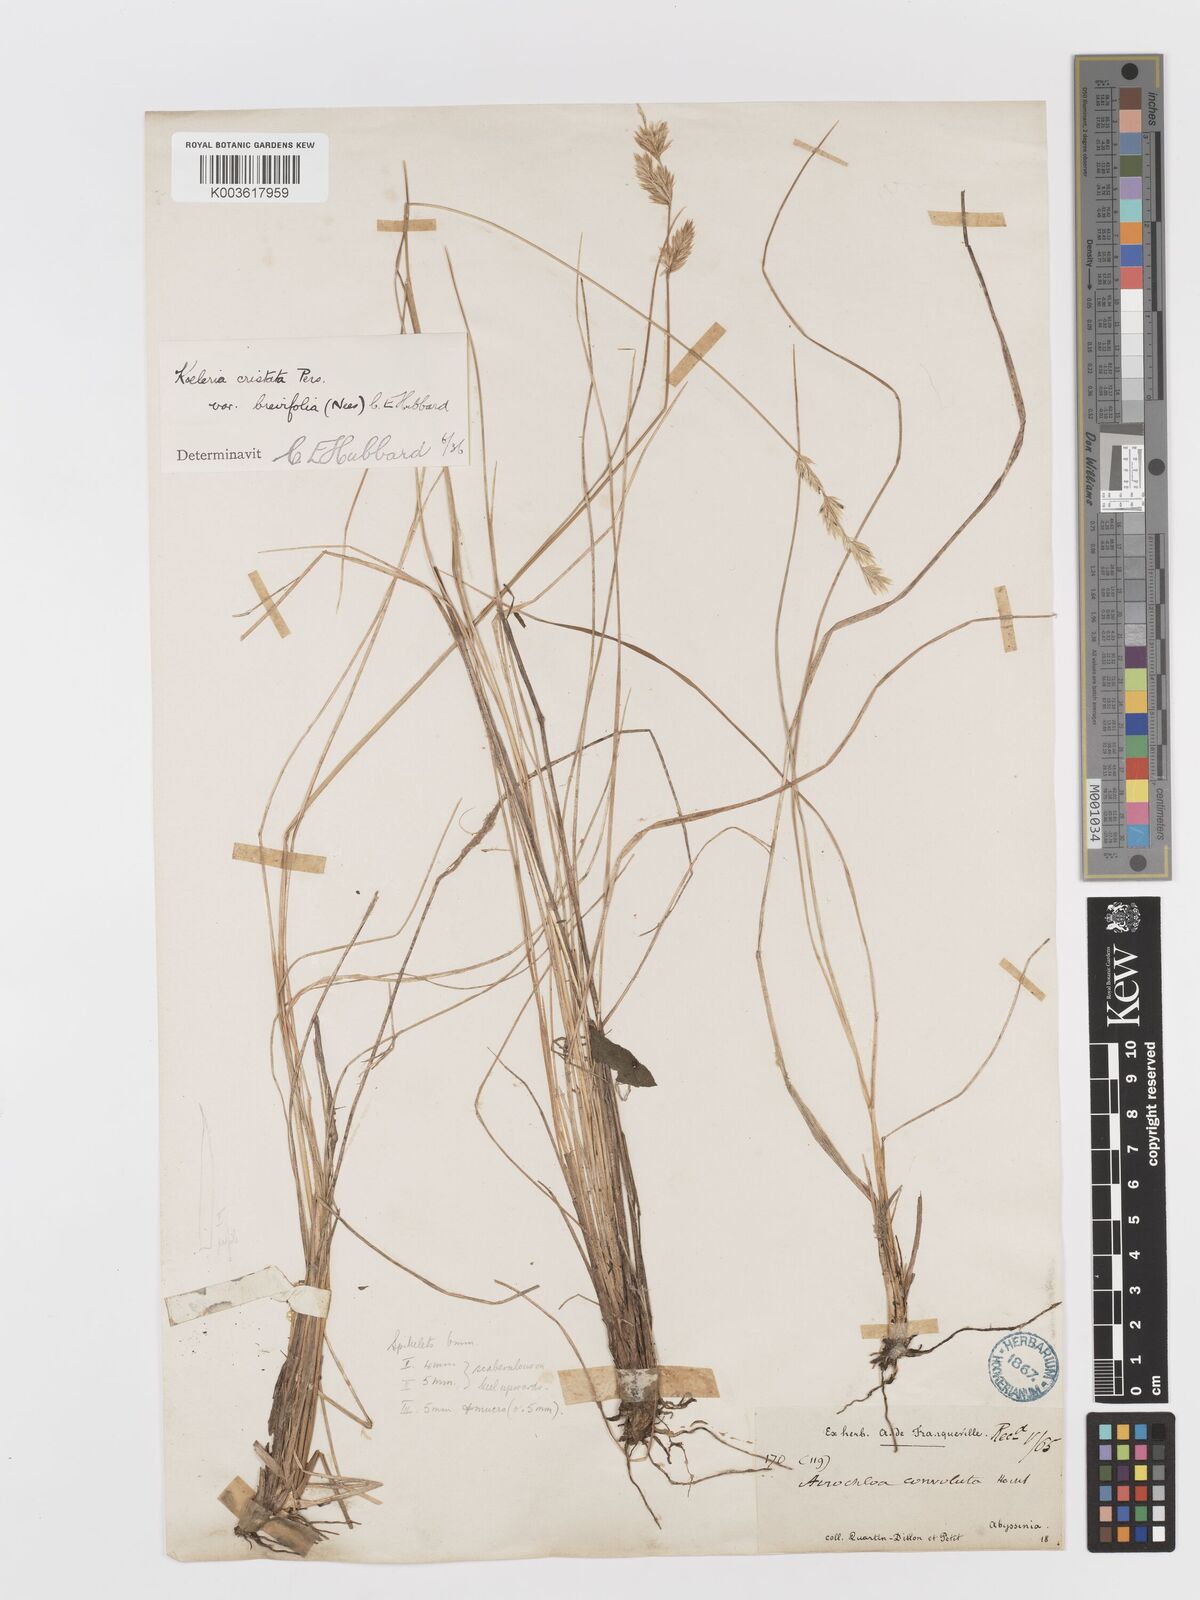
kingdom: Plantae
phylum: Tracheophyta
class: Liliopsida
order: Poales
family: Poaceae
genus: Koeleria
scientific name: Koeleria capensis
